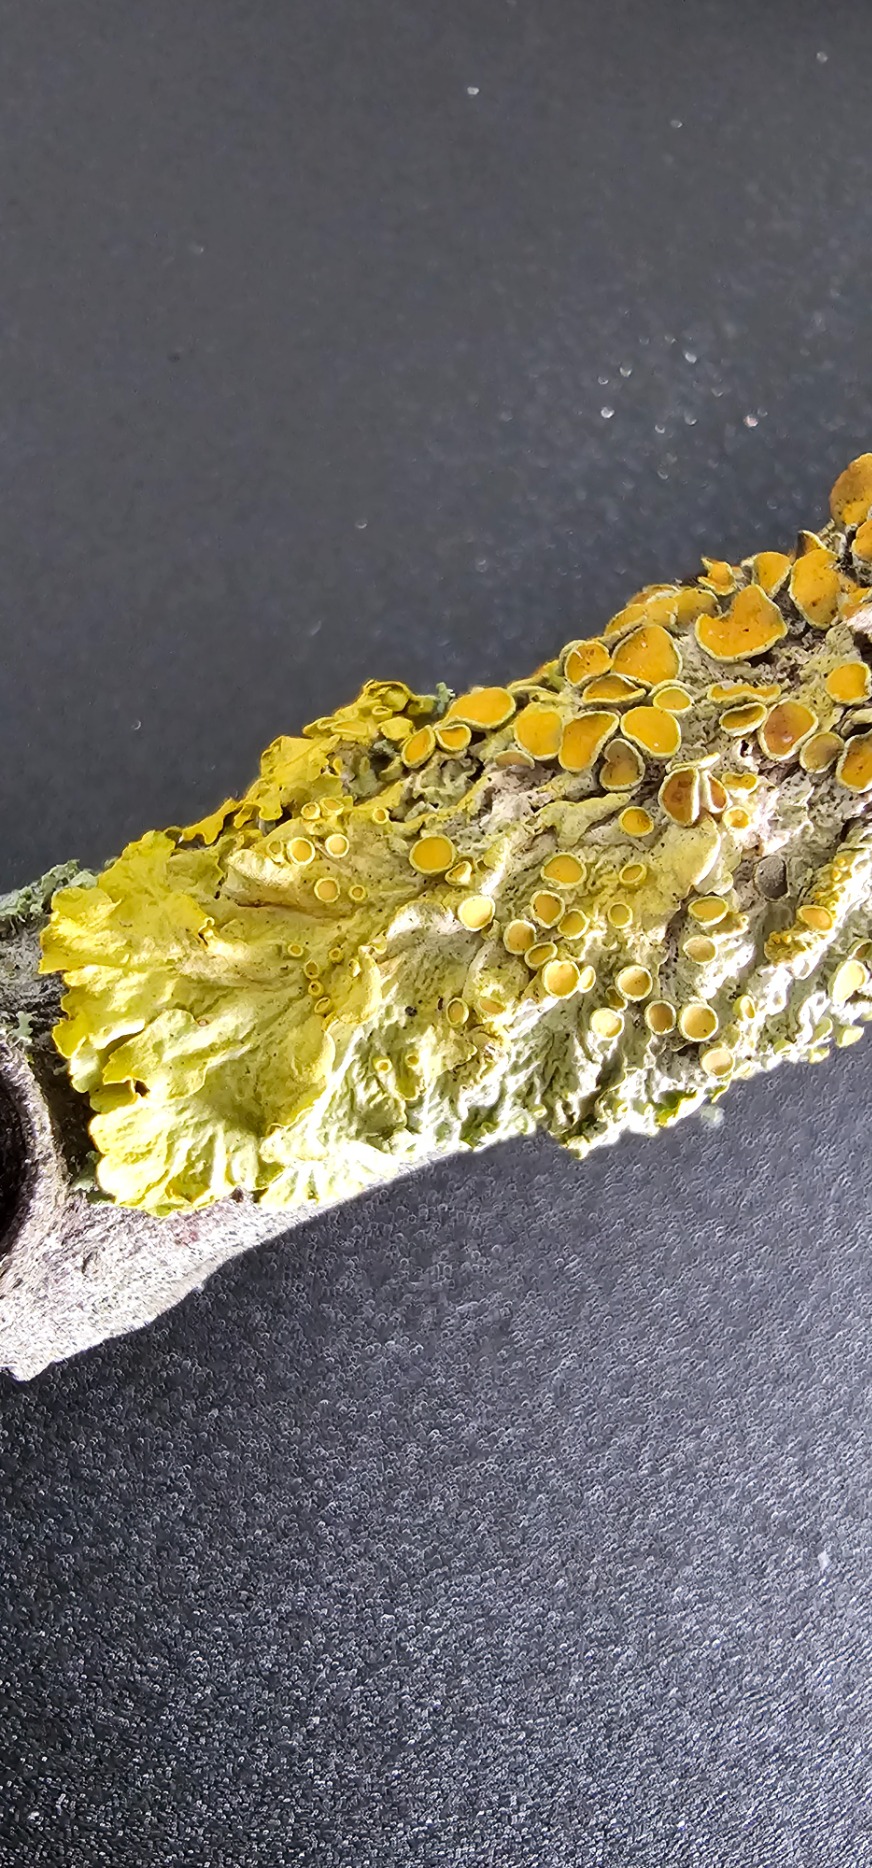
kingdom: Fungi
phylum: Ascomycota
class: Lecanoromycetes
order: Teloschistales
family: Teloschistaceae
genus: Xanthoria
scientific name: Xanthoria parietina
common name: Almindelig væggelav
